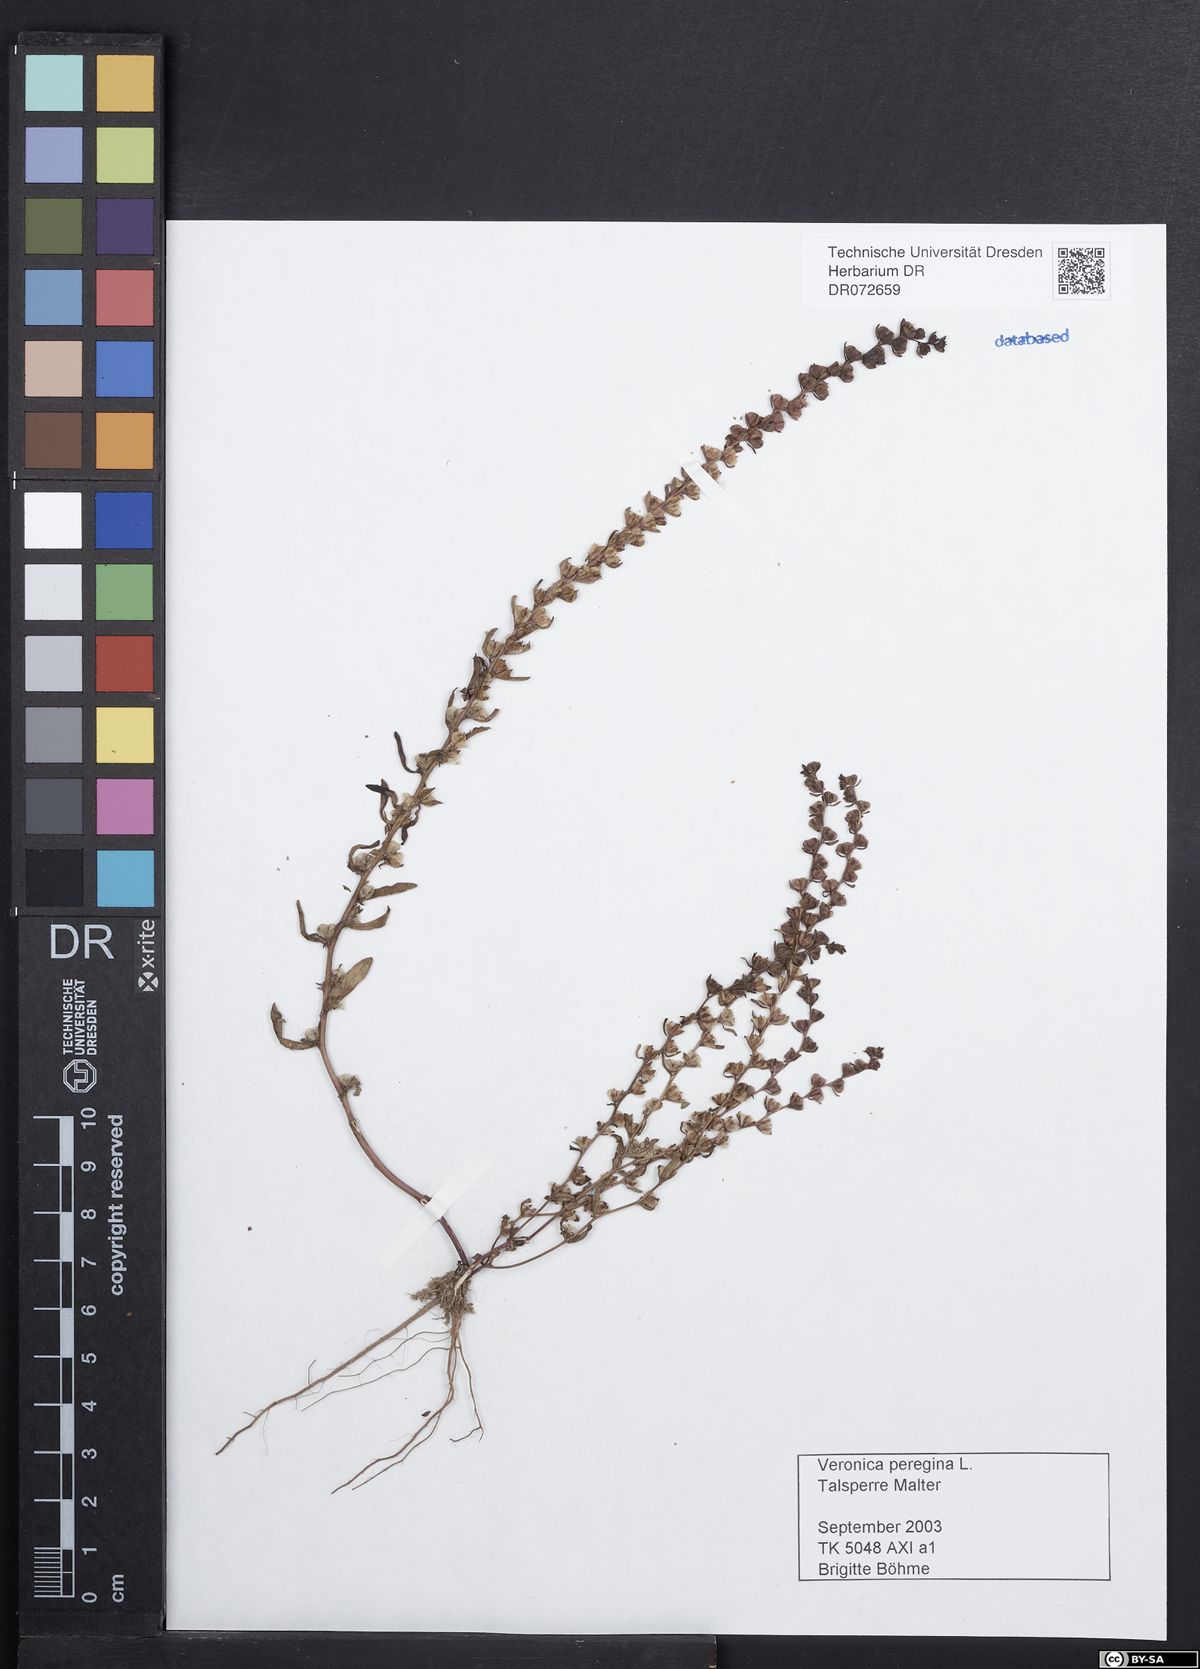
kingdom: Plantae
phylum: Tracheophyta
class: Magnoliopsida
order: Lamiales
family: Plantaginaceae
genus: Veronica
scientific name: Veronica peregrina
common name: Neckweed
